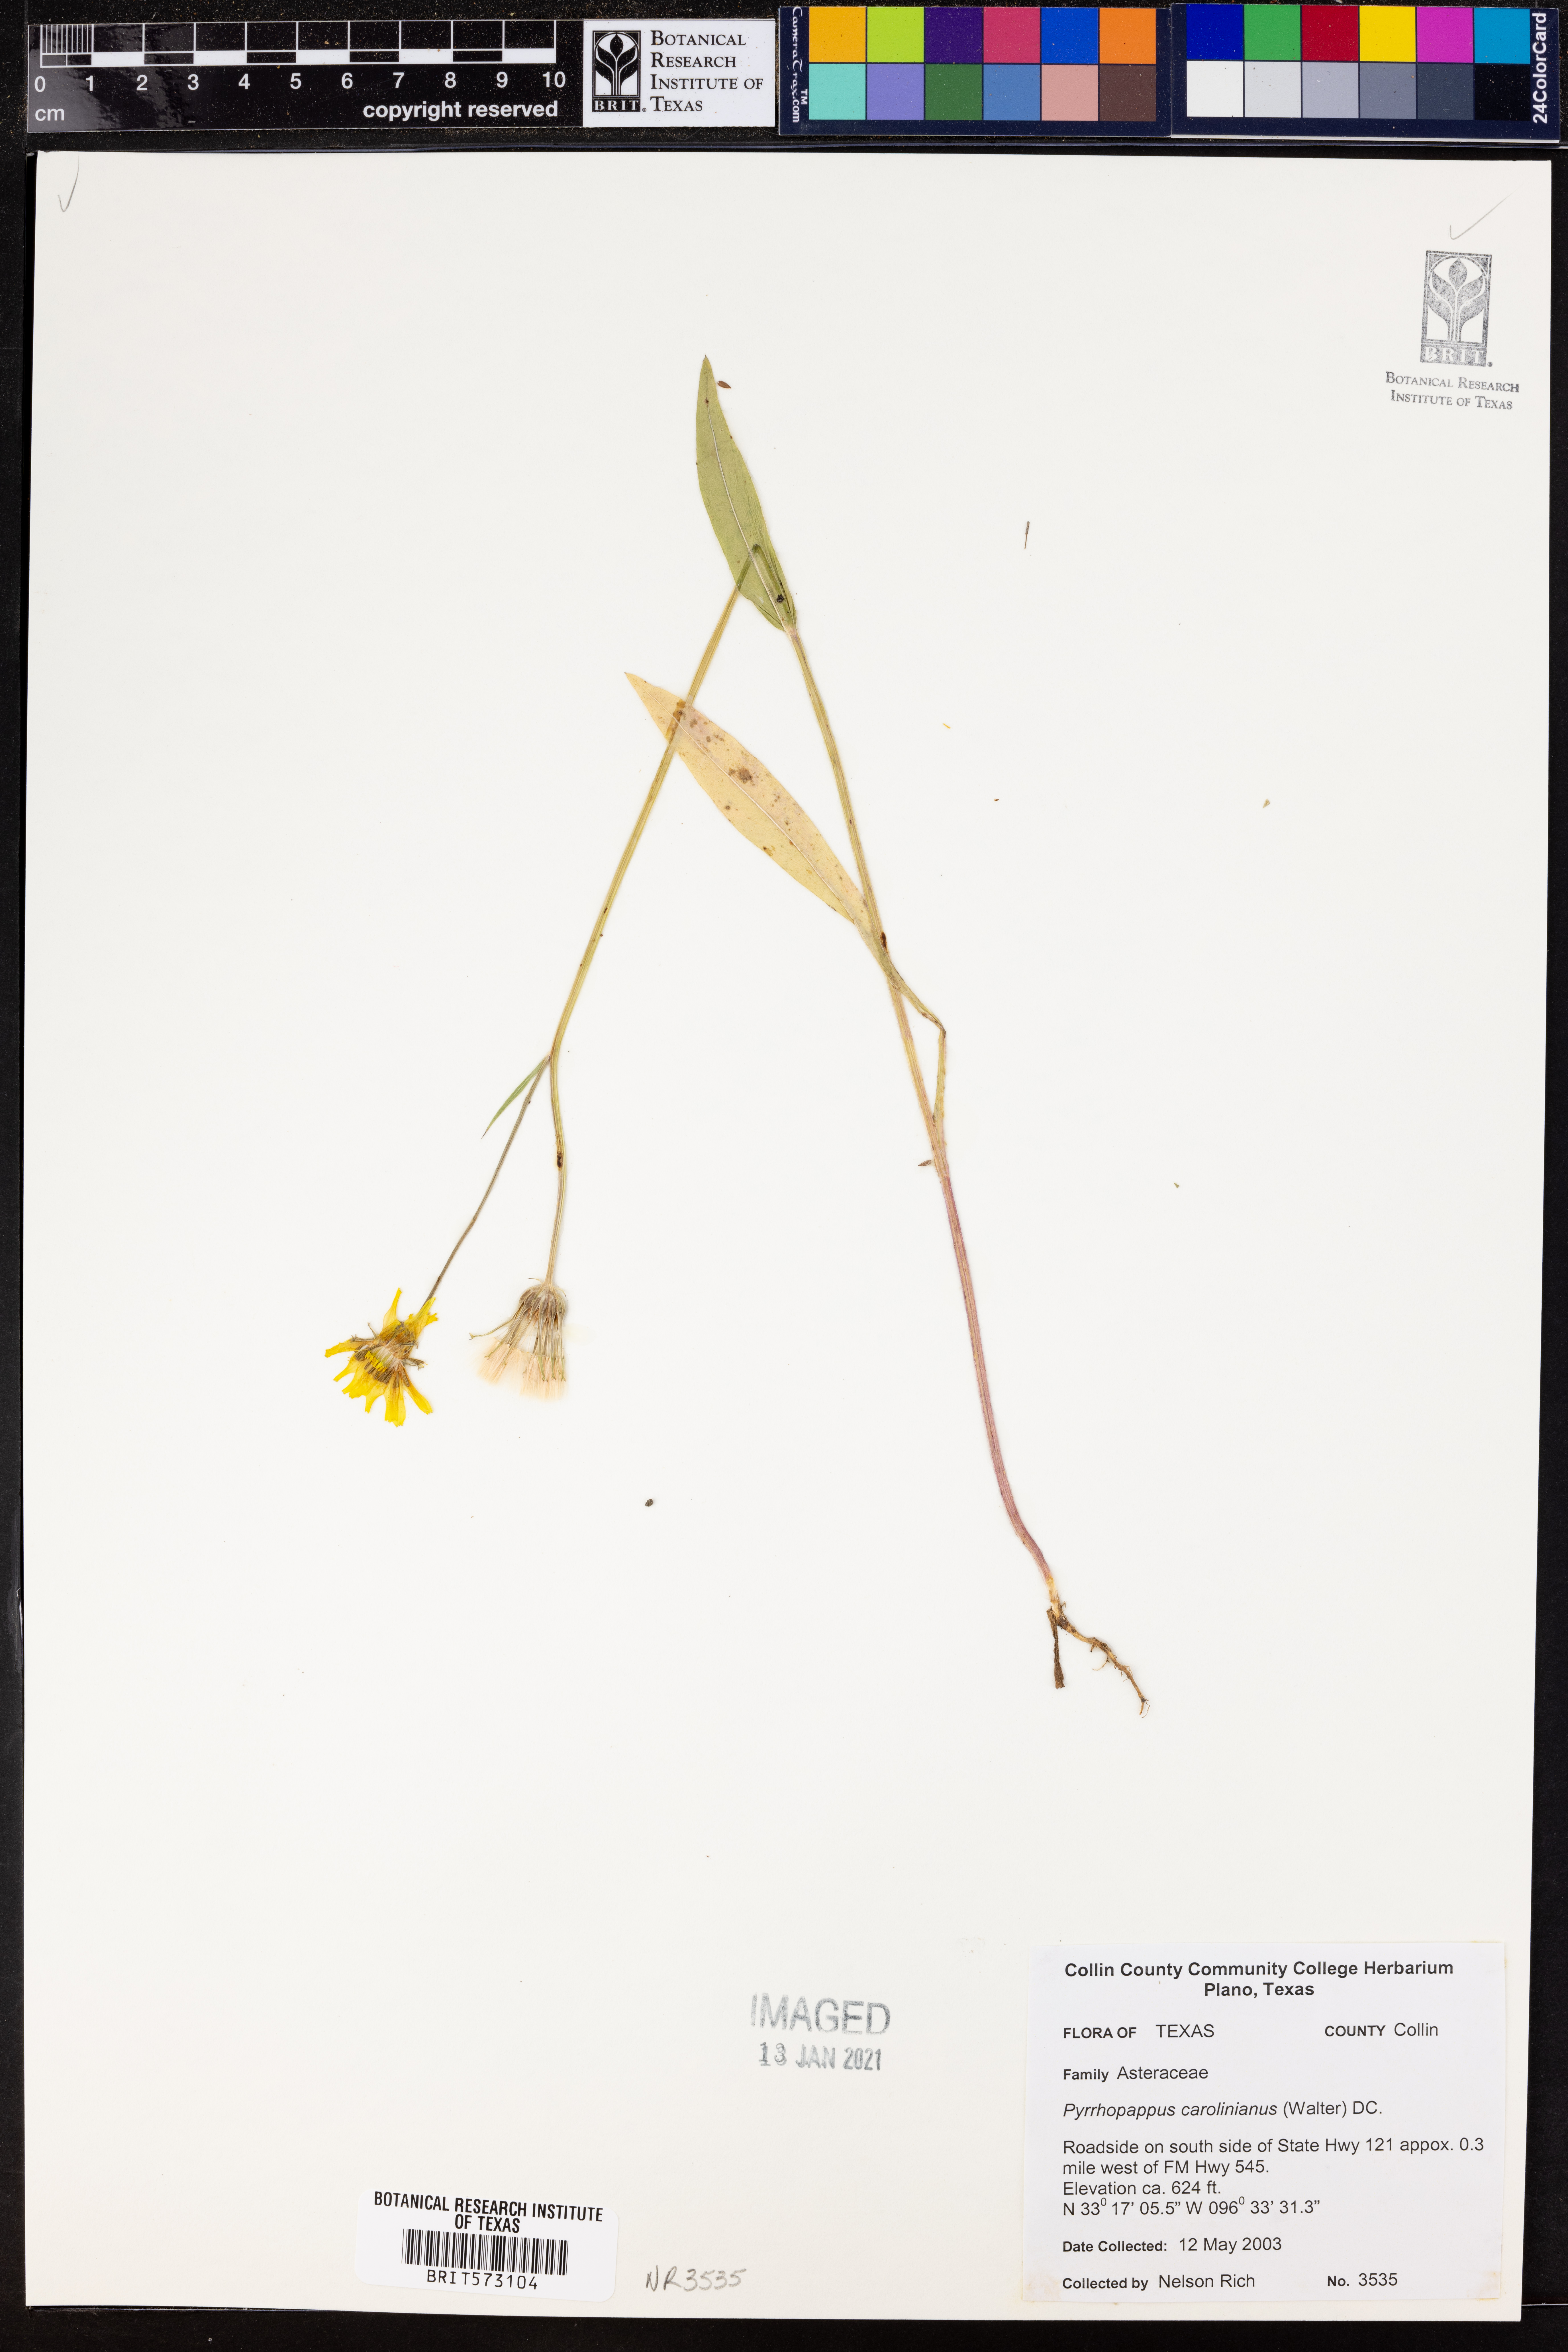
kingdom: Plantae
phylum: Tracheophyta
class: Magnoliopsida
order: Asterales
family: Asteraceae
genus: Pyrrhopappus
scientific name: Pyrrhopappus carolinianus
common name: Carolina desert-chicory
